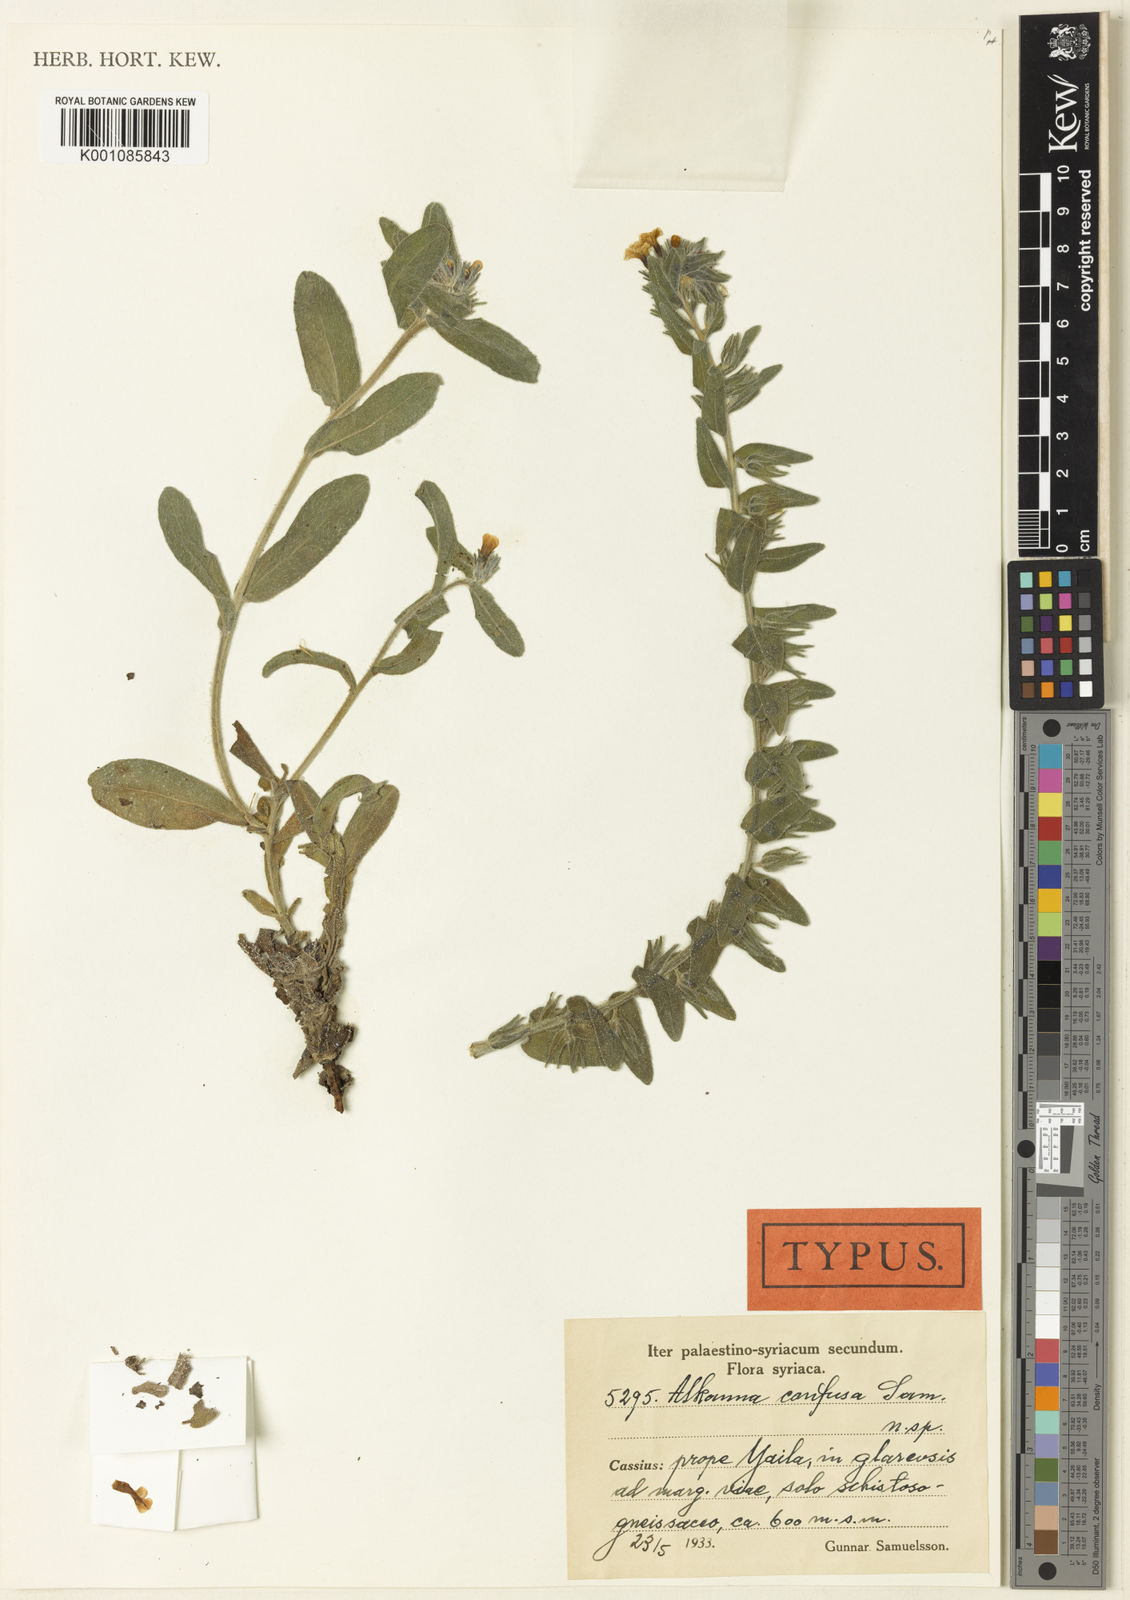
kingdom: Plantae
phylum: Tracheophyta
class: Magnoliopsida
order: Boraginales
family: Boraginaceae
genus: Alkanna
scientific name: Alkanna confusa
